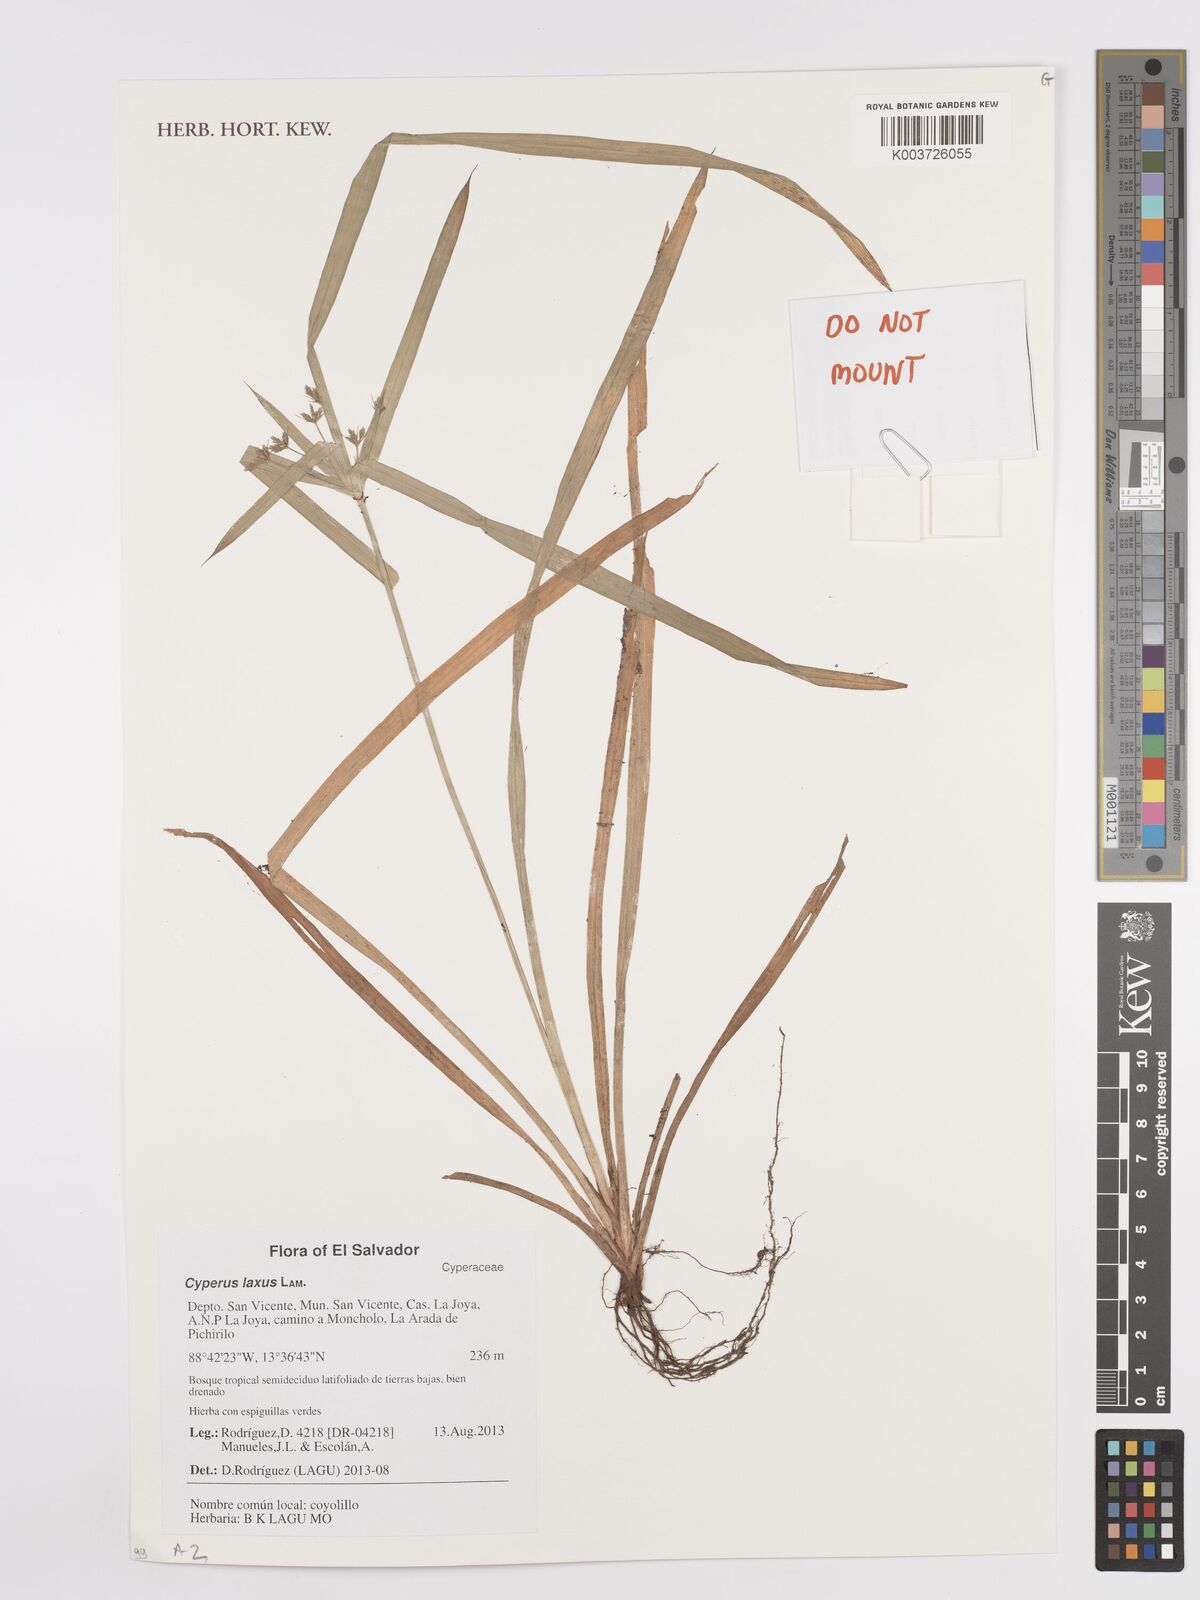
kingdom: Plantae
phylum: Tracheophyta
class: Liliopsida
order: Poales
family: Cyperaceae
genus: Cyperus
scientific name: Cyperus laxus
